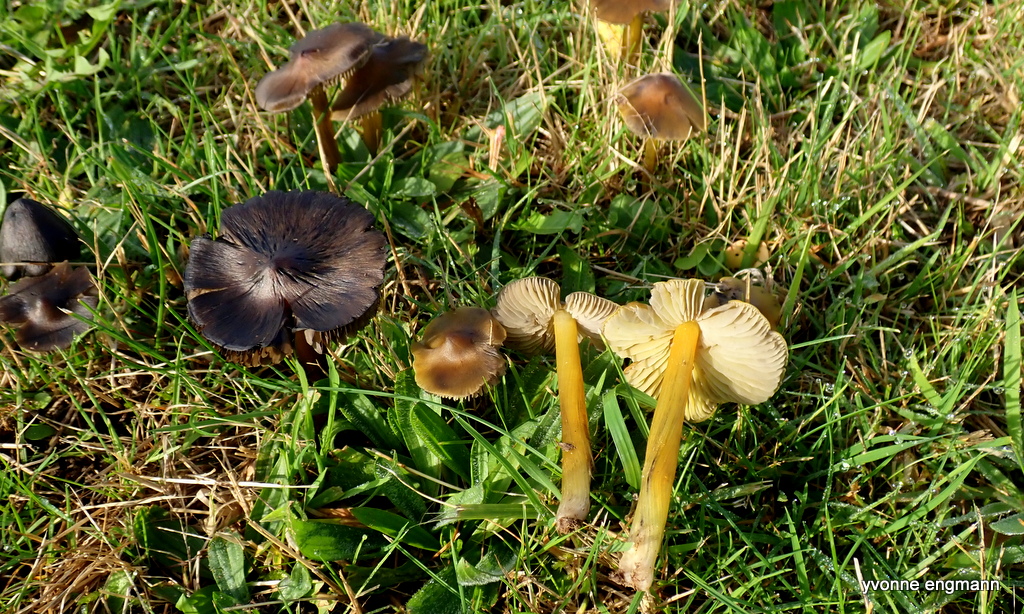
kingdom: Fungi
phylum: Basidiomycota
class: Agaricomycetes
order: Agaricales
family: Hygrophoraceae
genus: Hygrocybe
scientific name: Hygrocybe conica
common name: kegle-vokshat
